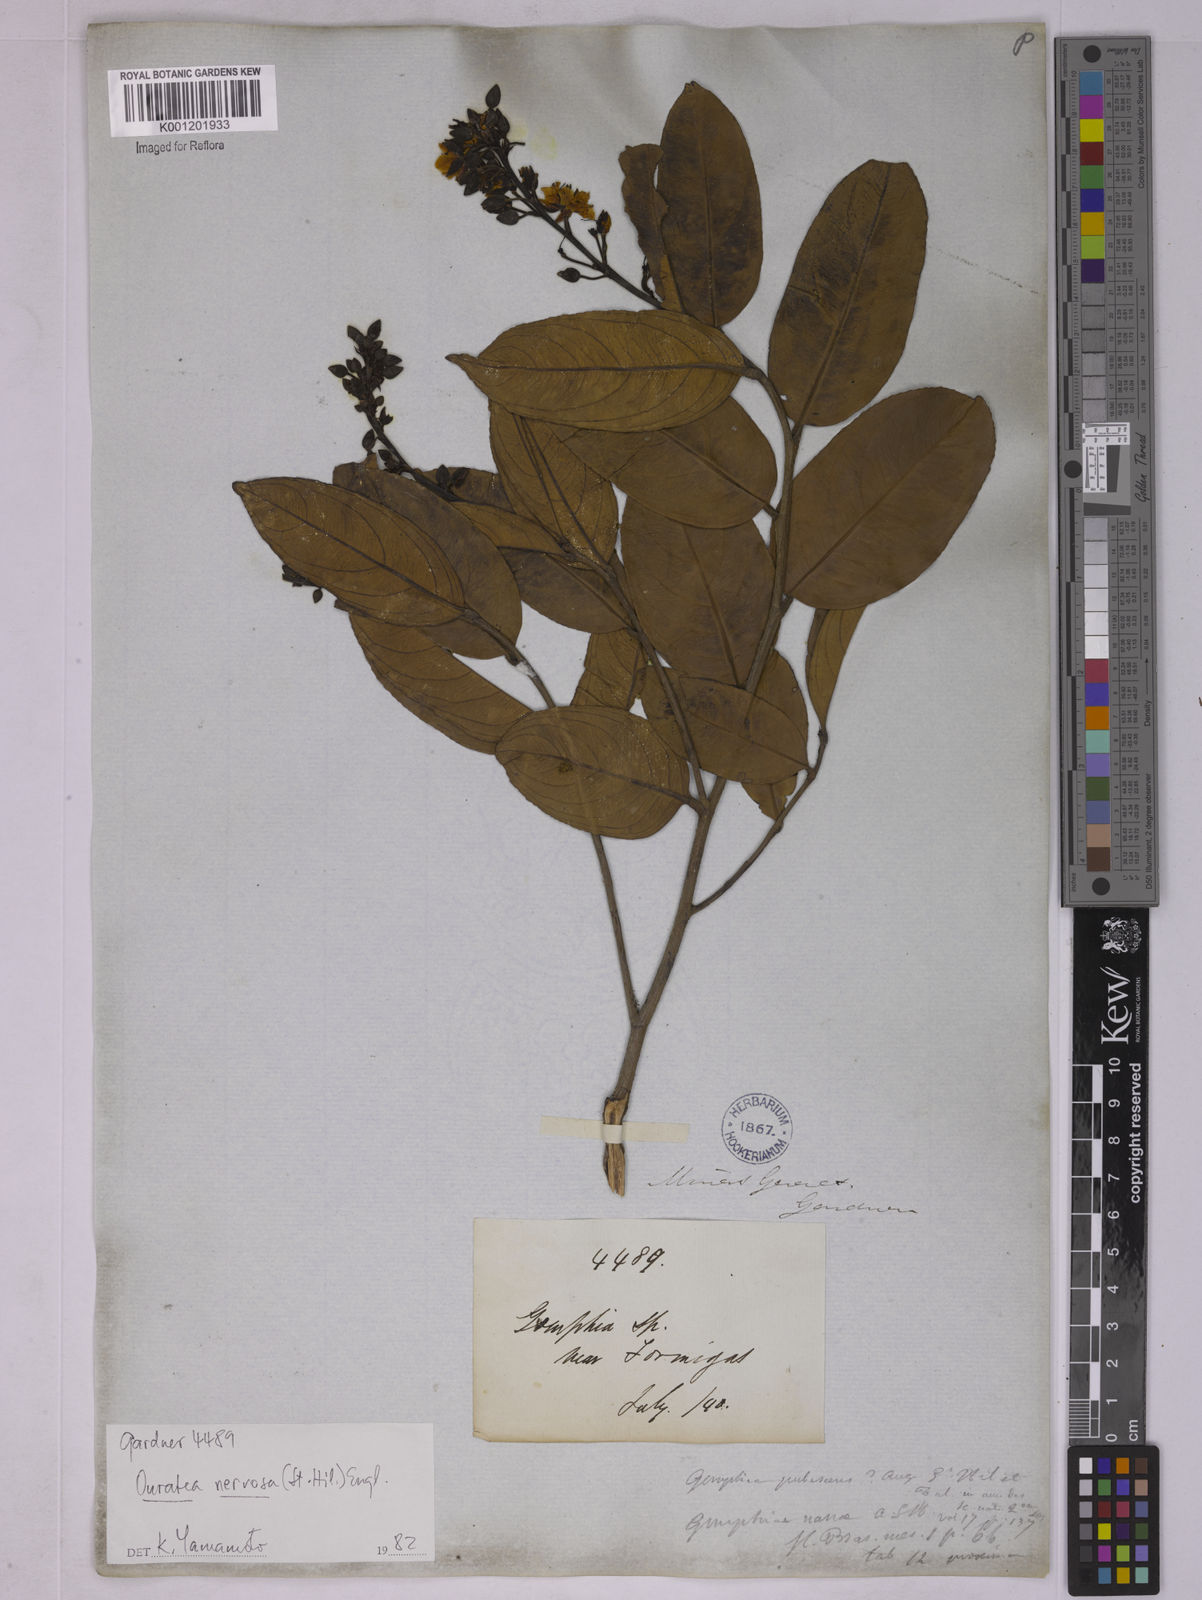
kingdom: Plantae
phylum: Tracheophyta
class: Magnoliopsida
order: Malpighiales
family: Ochnaceae
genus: Ouratea
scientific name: Ouratea nervosa
